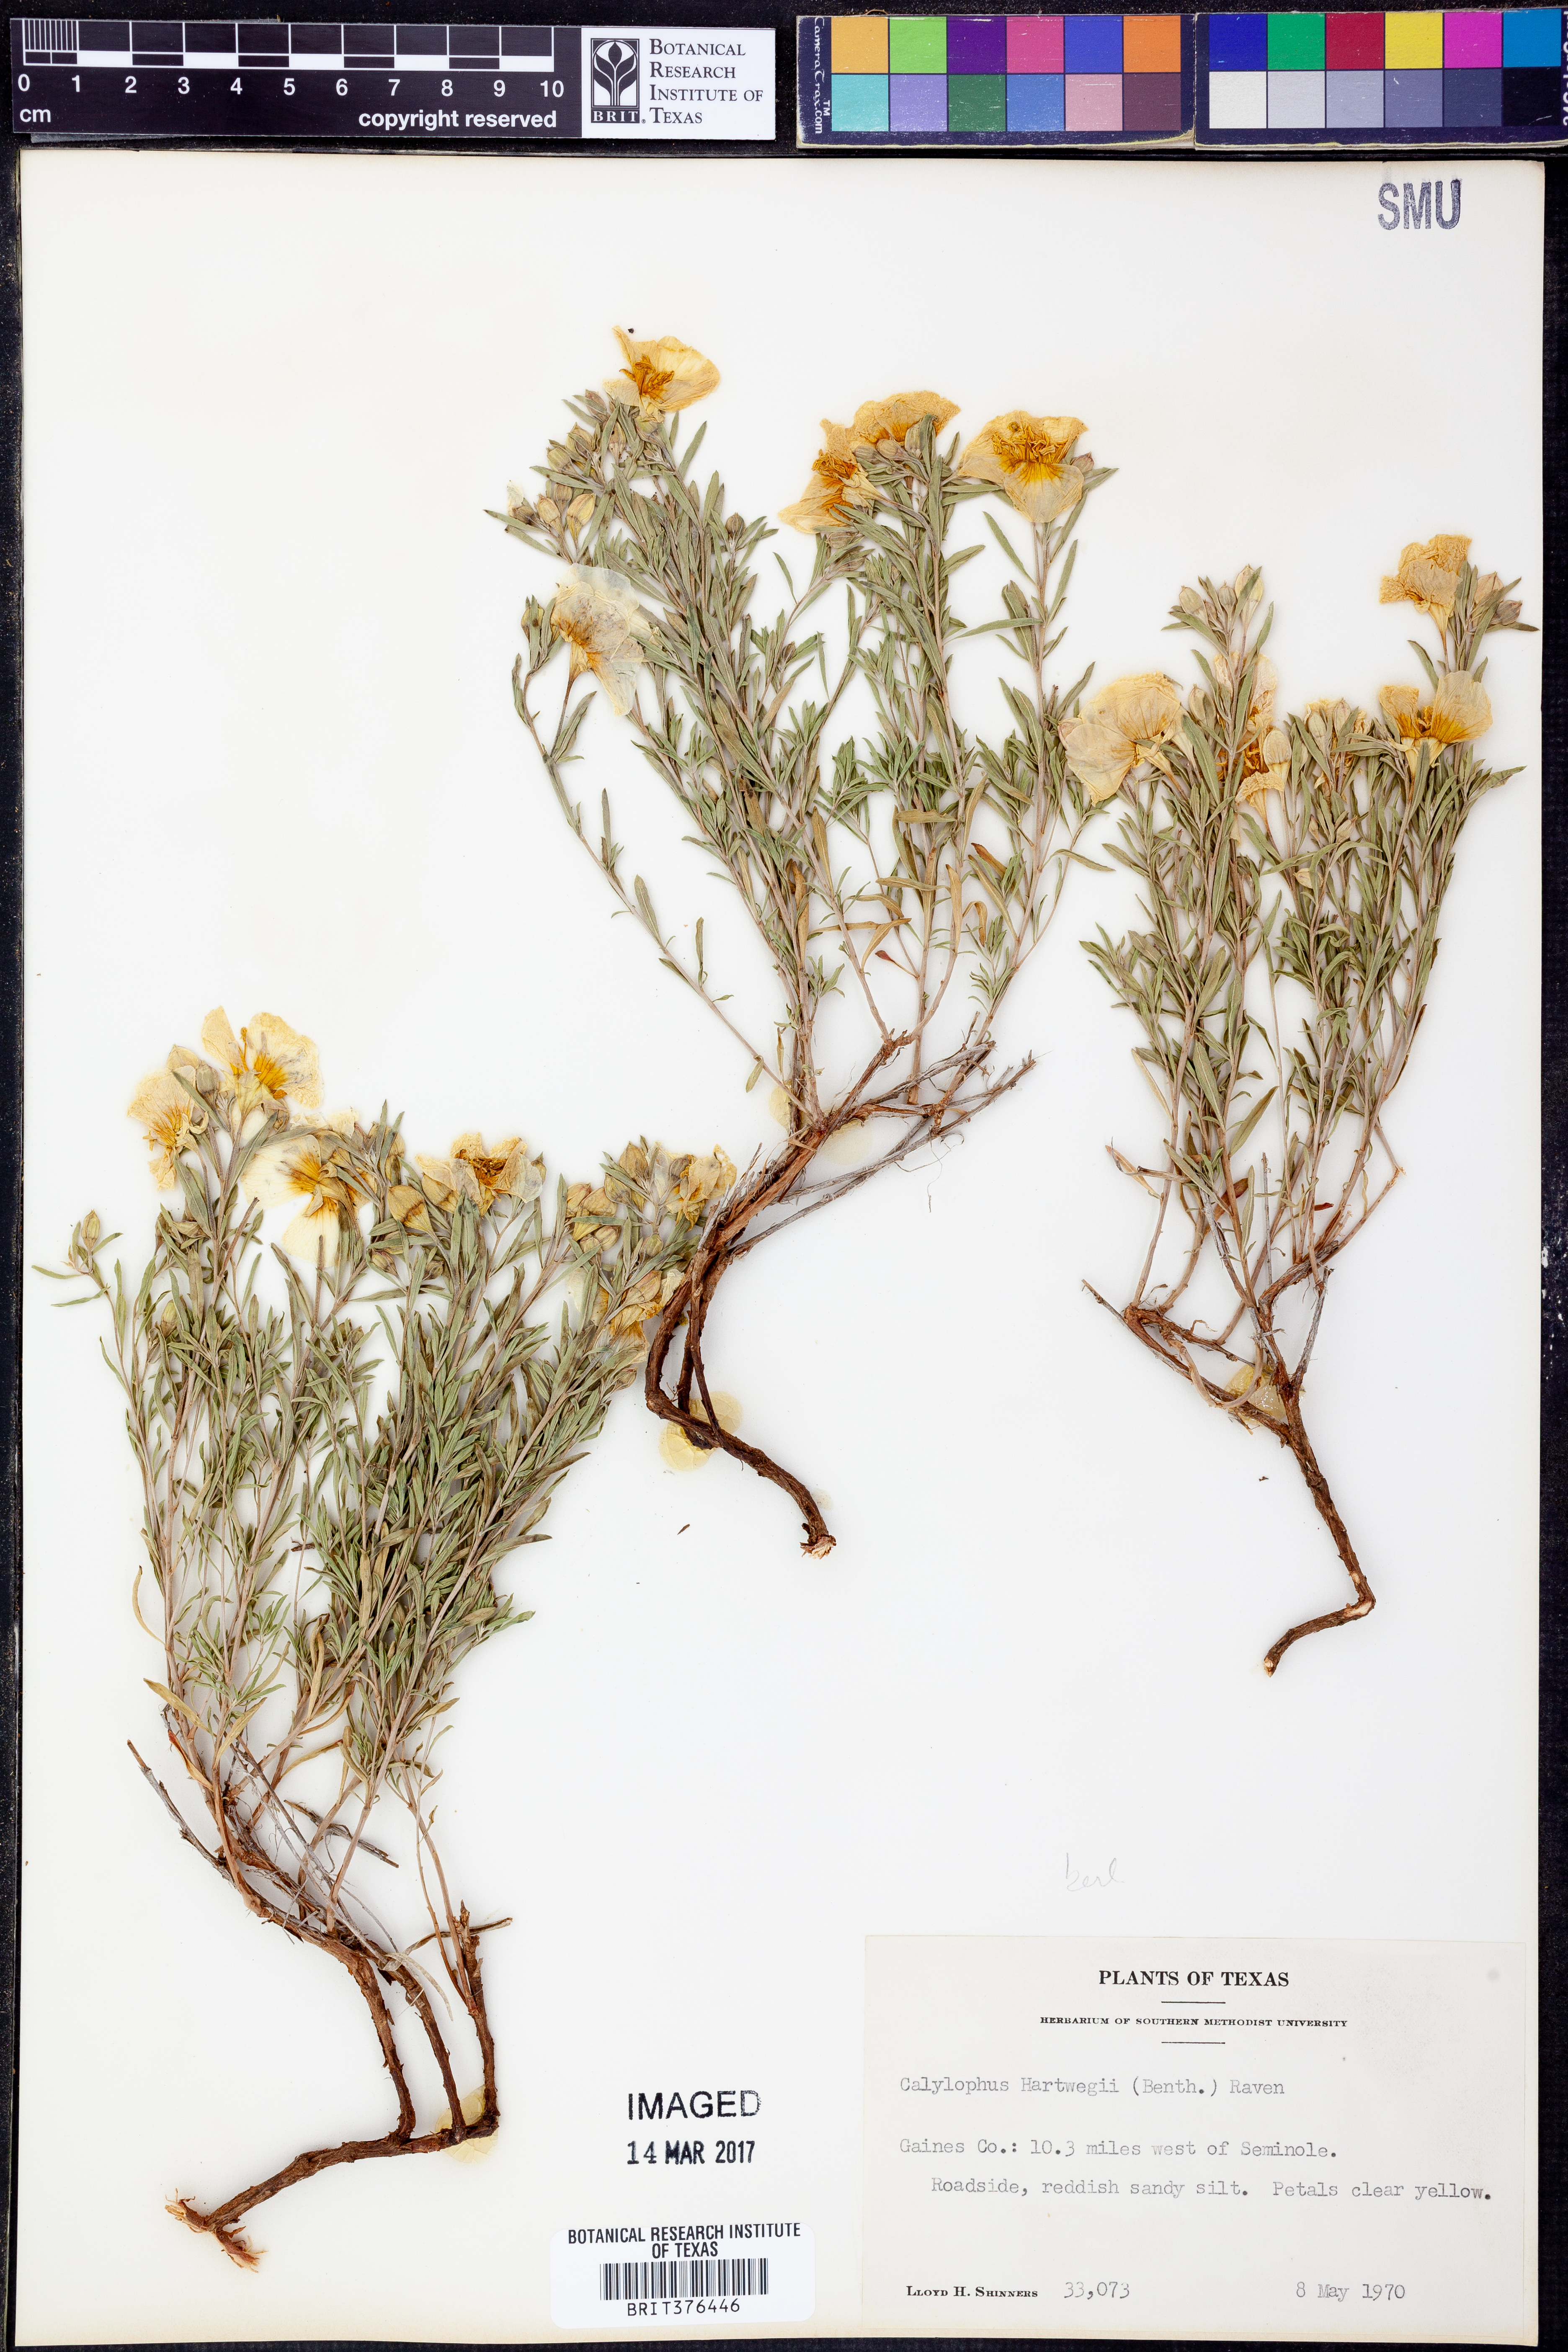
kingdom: Plantae
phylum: Tracheophyta
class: Magnoliopsida
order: Myrtales
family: Onagraceae
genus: Oenothera
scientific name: Oenothera hartwegii
